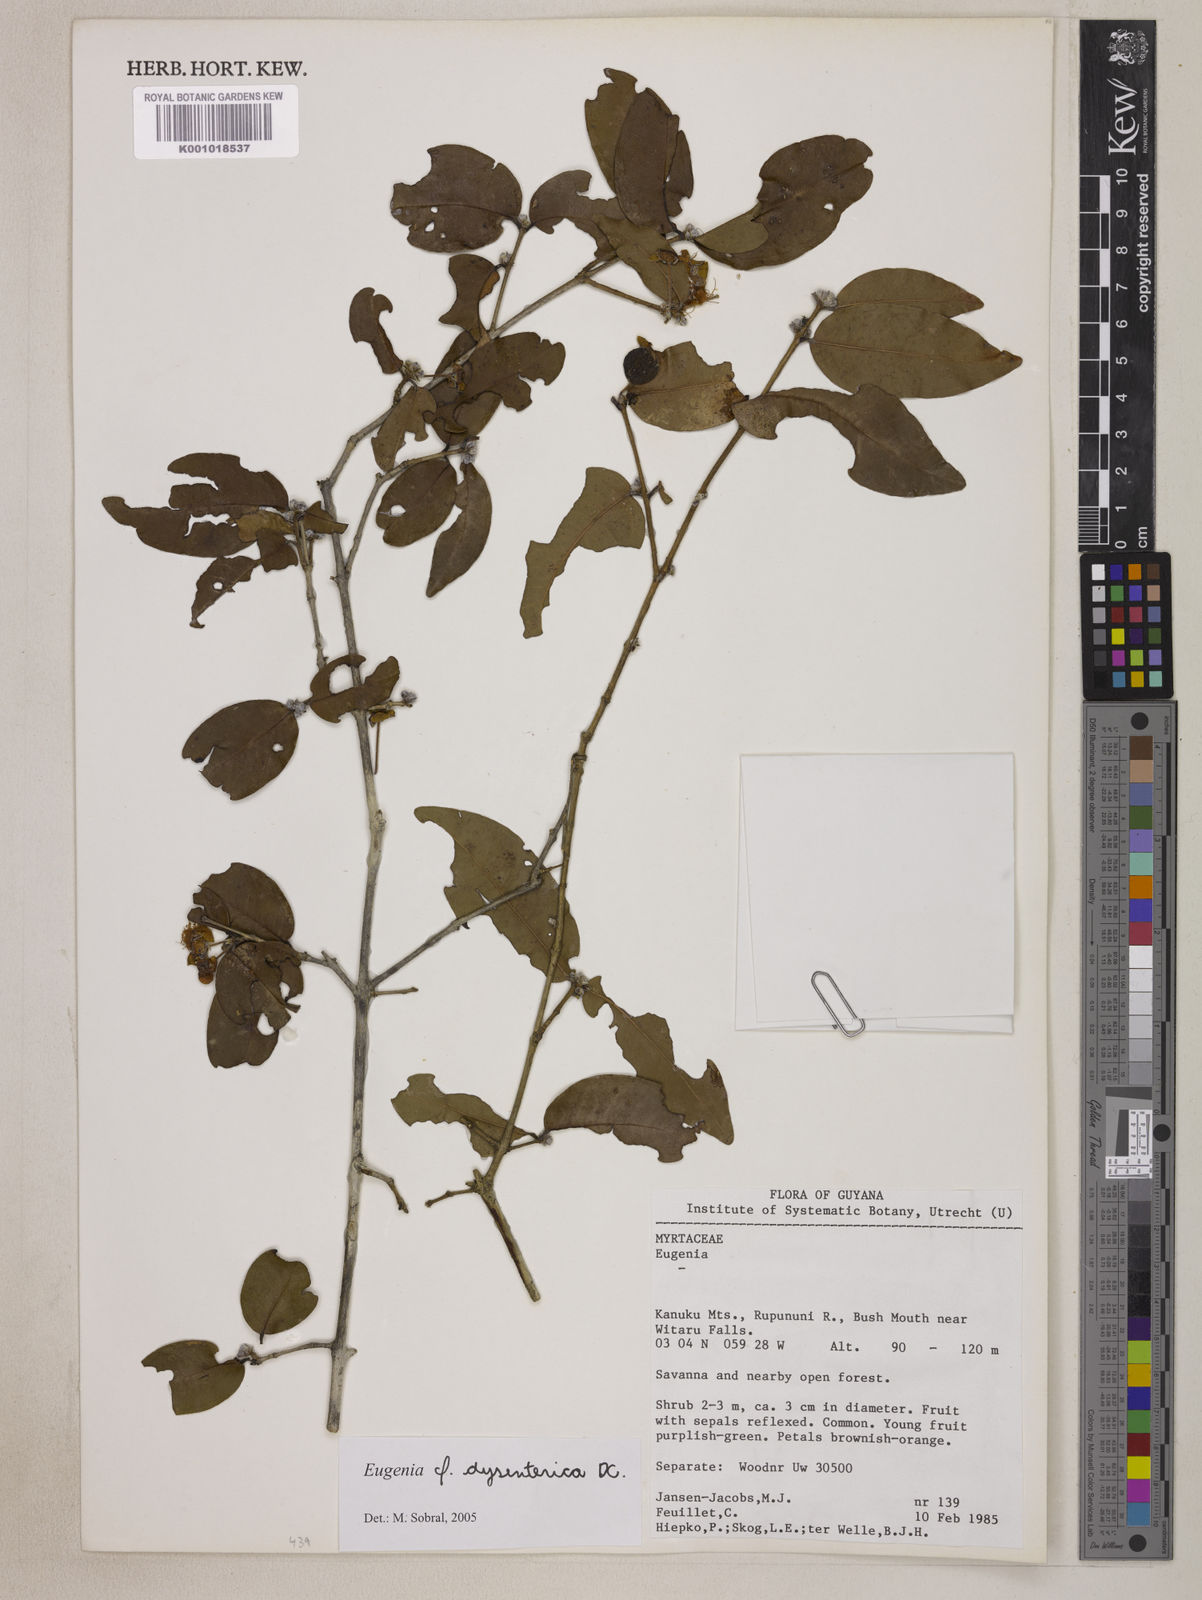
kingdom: Plantae
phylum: Tracheophyta
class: Magnoliopsida
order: Myrtales
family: Myrtaceae
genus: Eugenia
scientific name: Eugenia dysenterica
